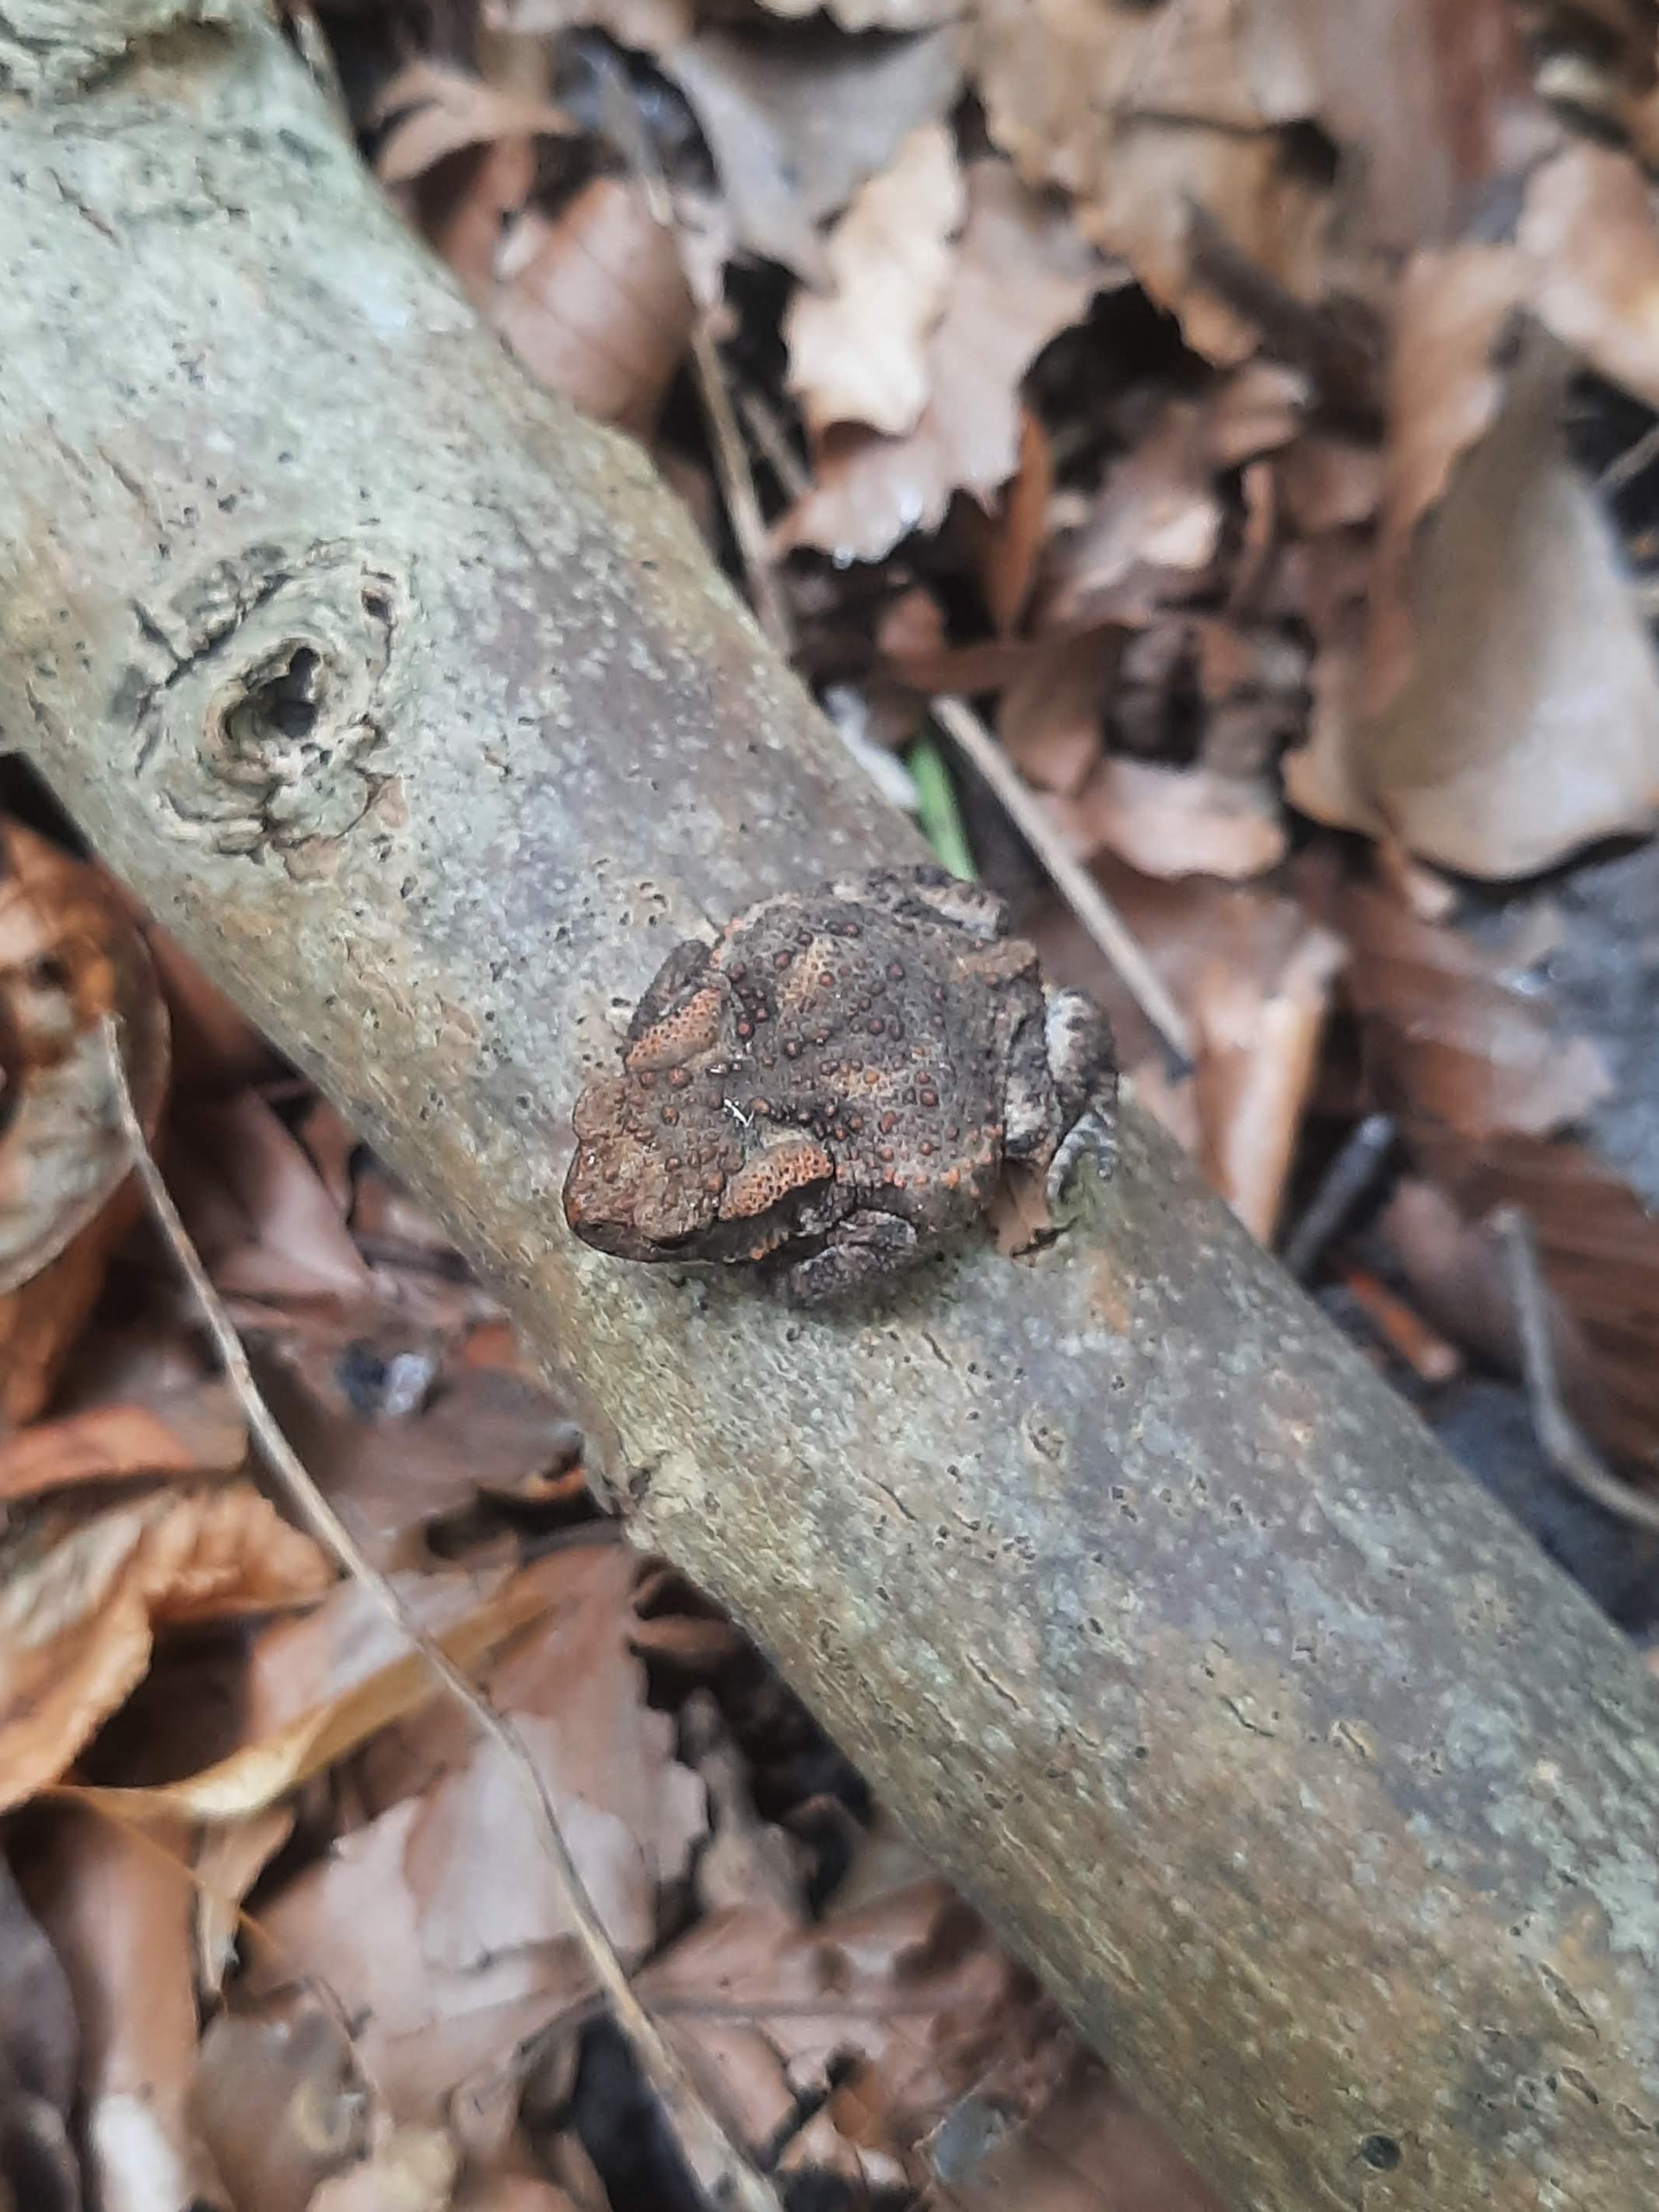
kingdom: Animalia
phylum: Chordata
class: Amphibia
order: Anura
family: Bufonidae
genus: Bufo
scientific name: Bufo bufo
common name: Skrubtudse
